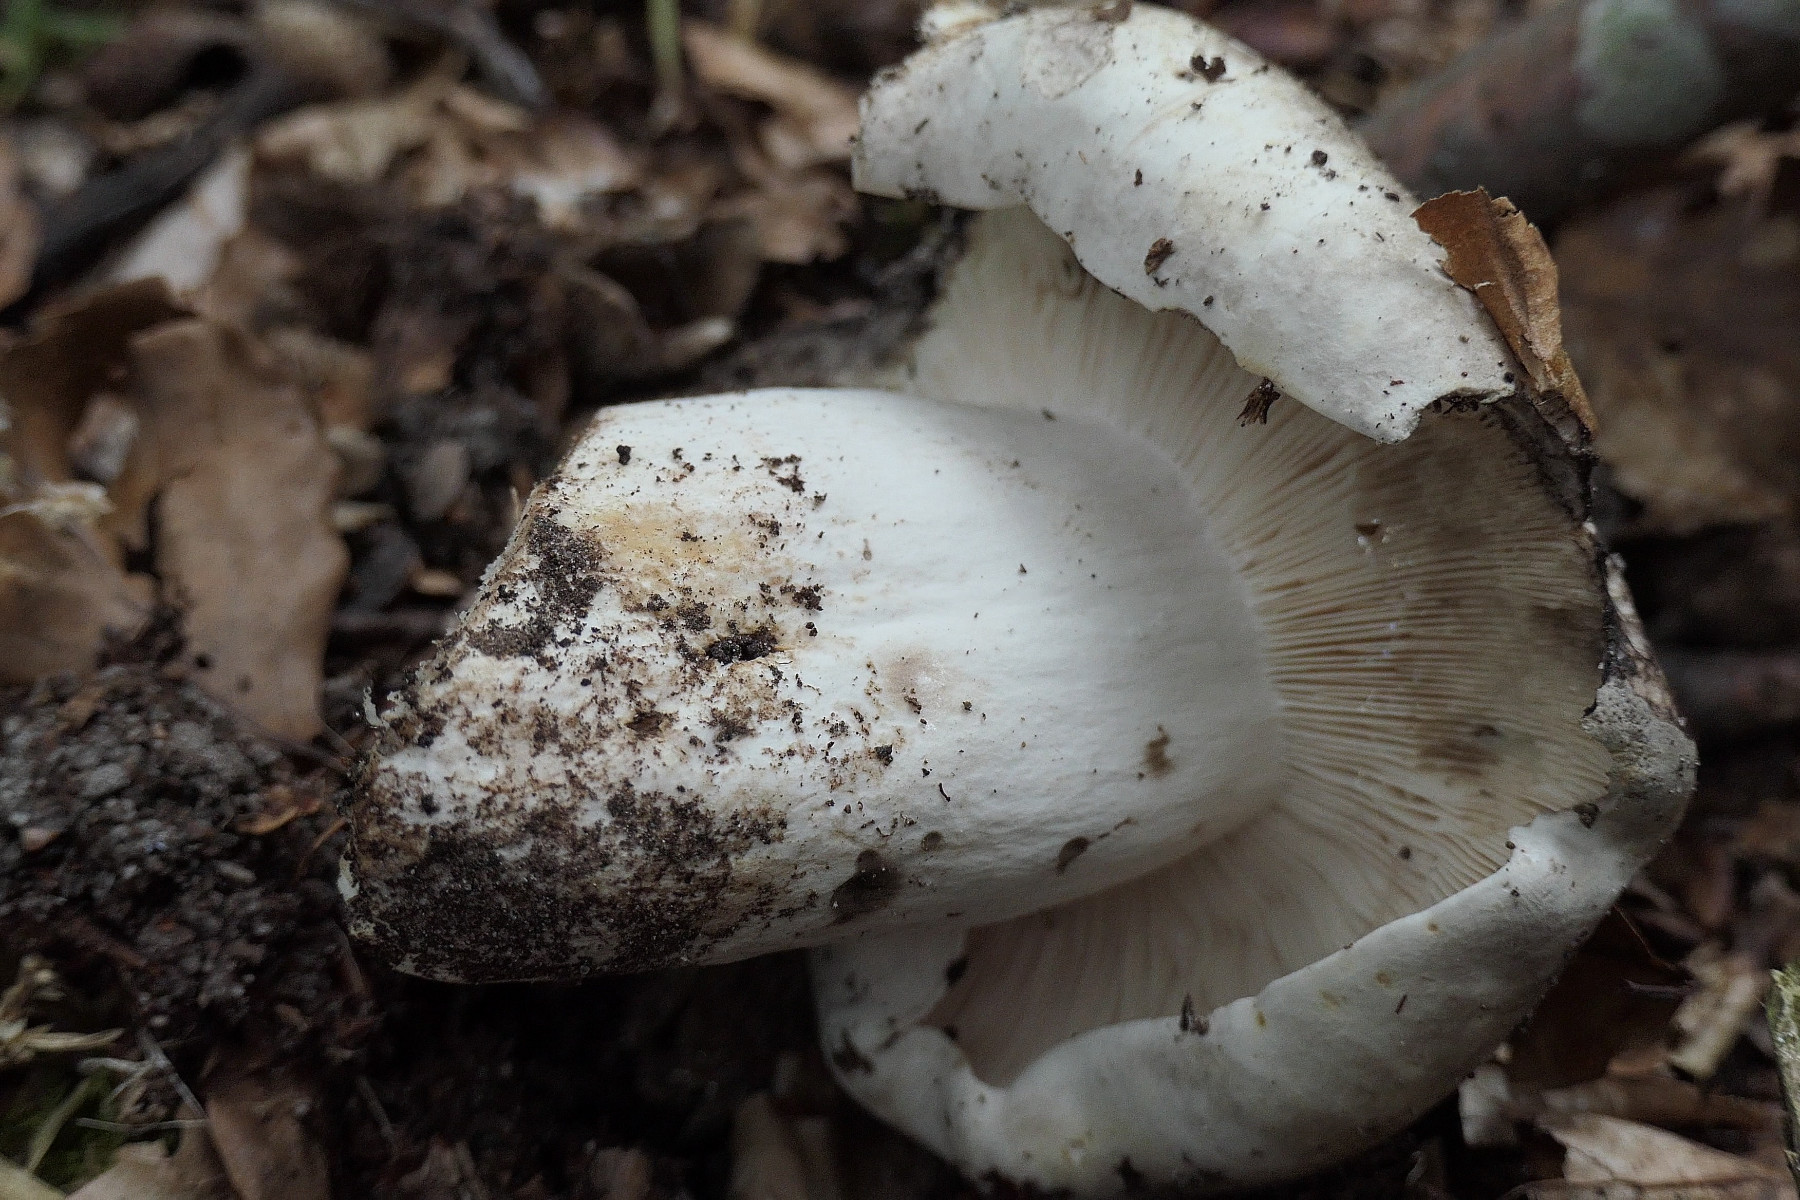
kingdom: Fungi
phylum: Basidiomycota
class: Agaricomycetes
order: Russulales
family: Russulaceae
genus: Russula
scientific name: Russula acrifolia
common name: skarpbladet skørhat
